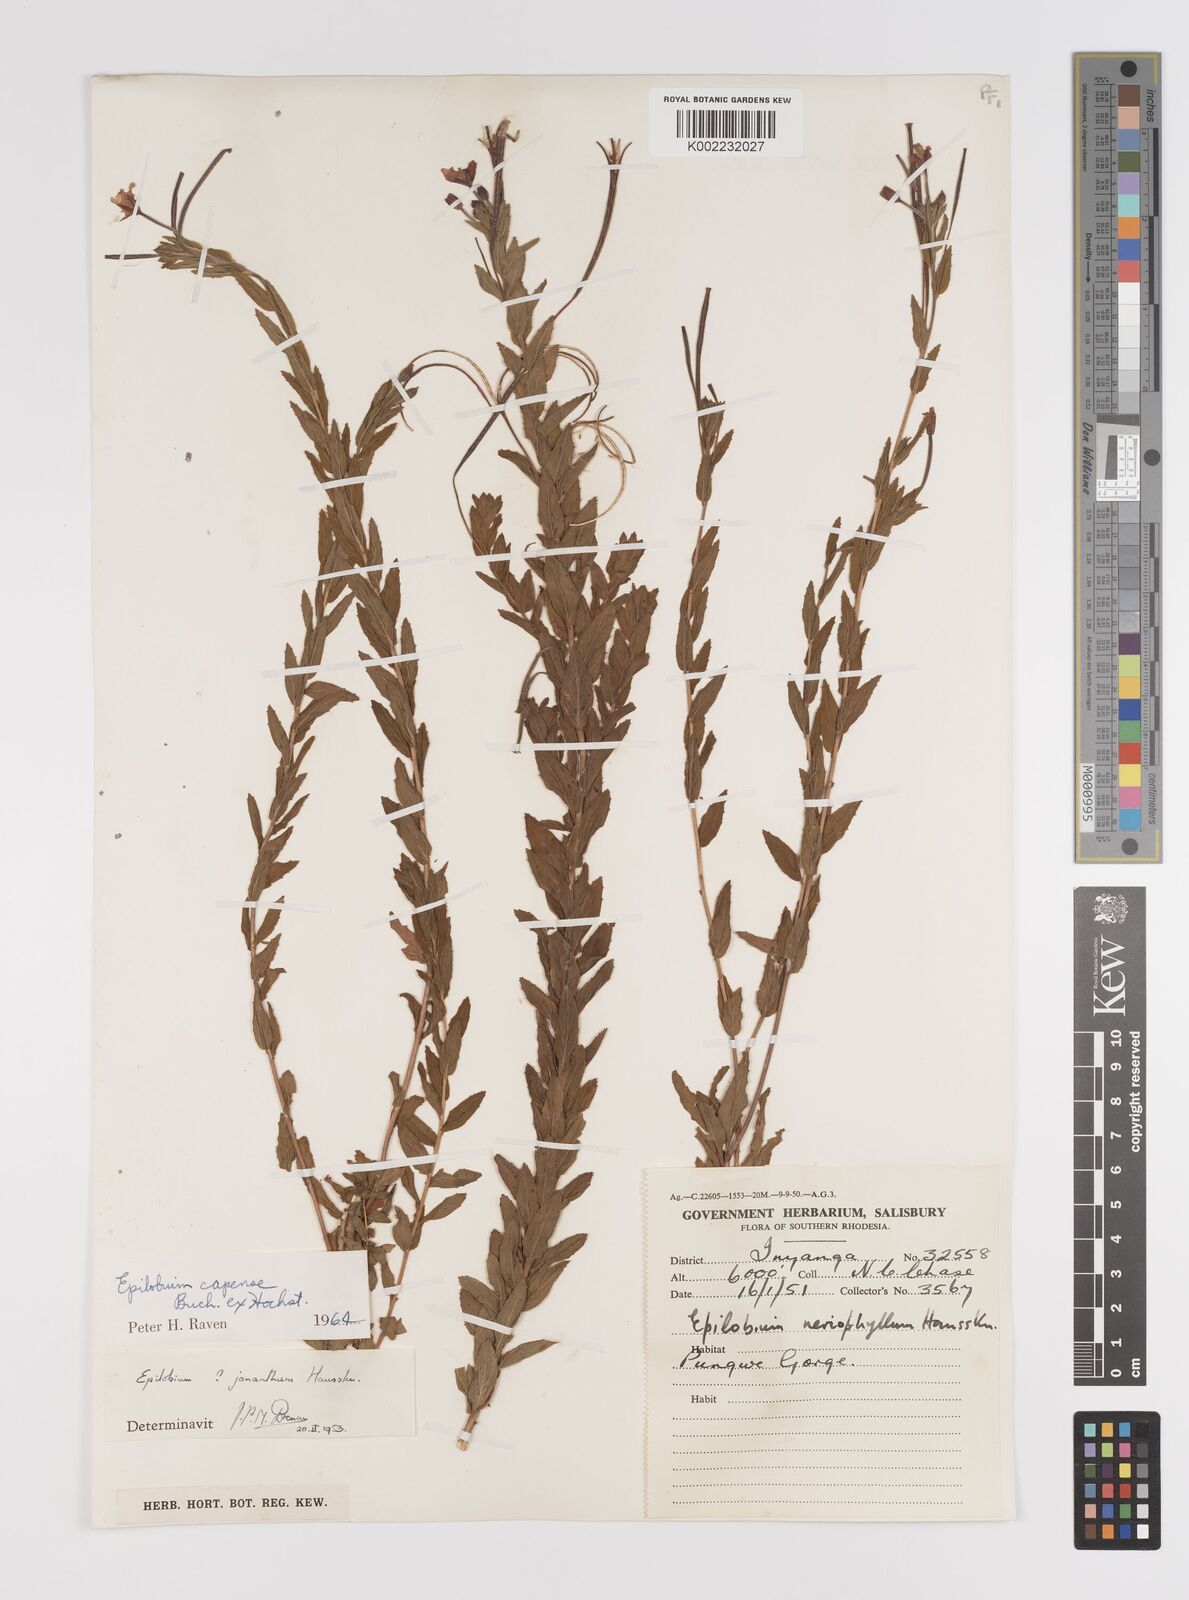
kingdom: Plantae
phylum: Tracheophyta
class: Magnoliopsida
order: Myrtales
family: Onagraceae
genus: Epilobium
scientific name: Epilobium capense
